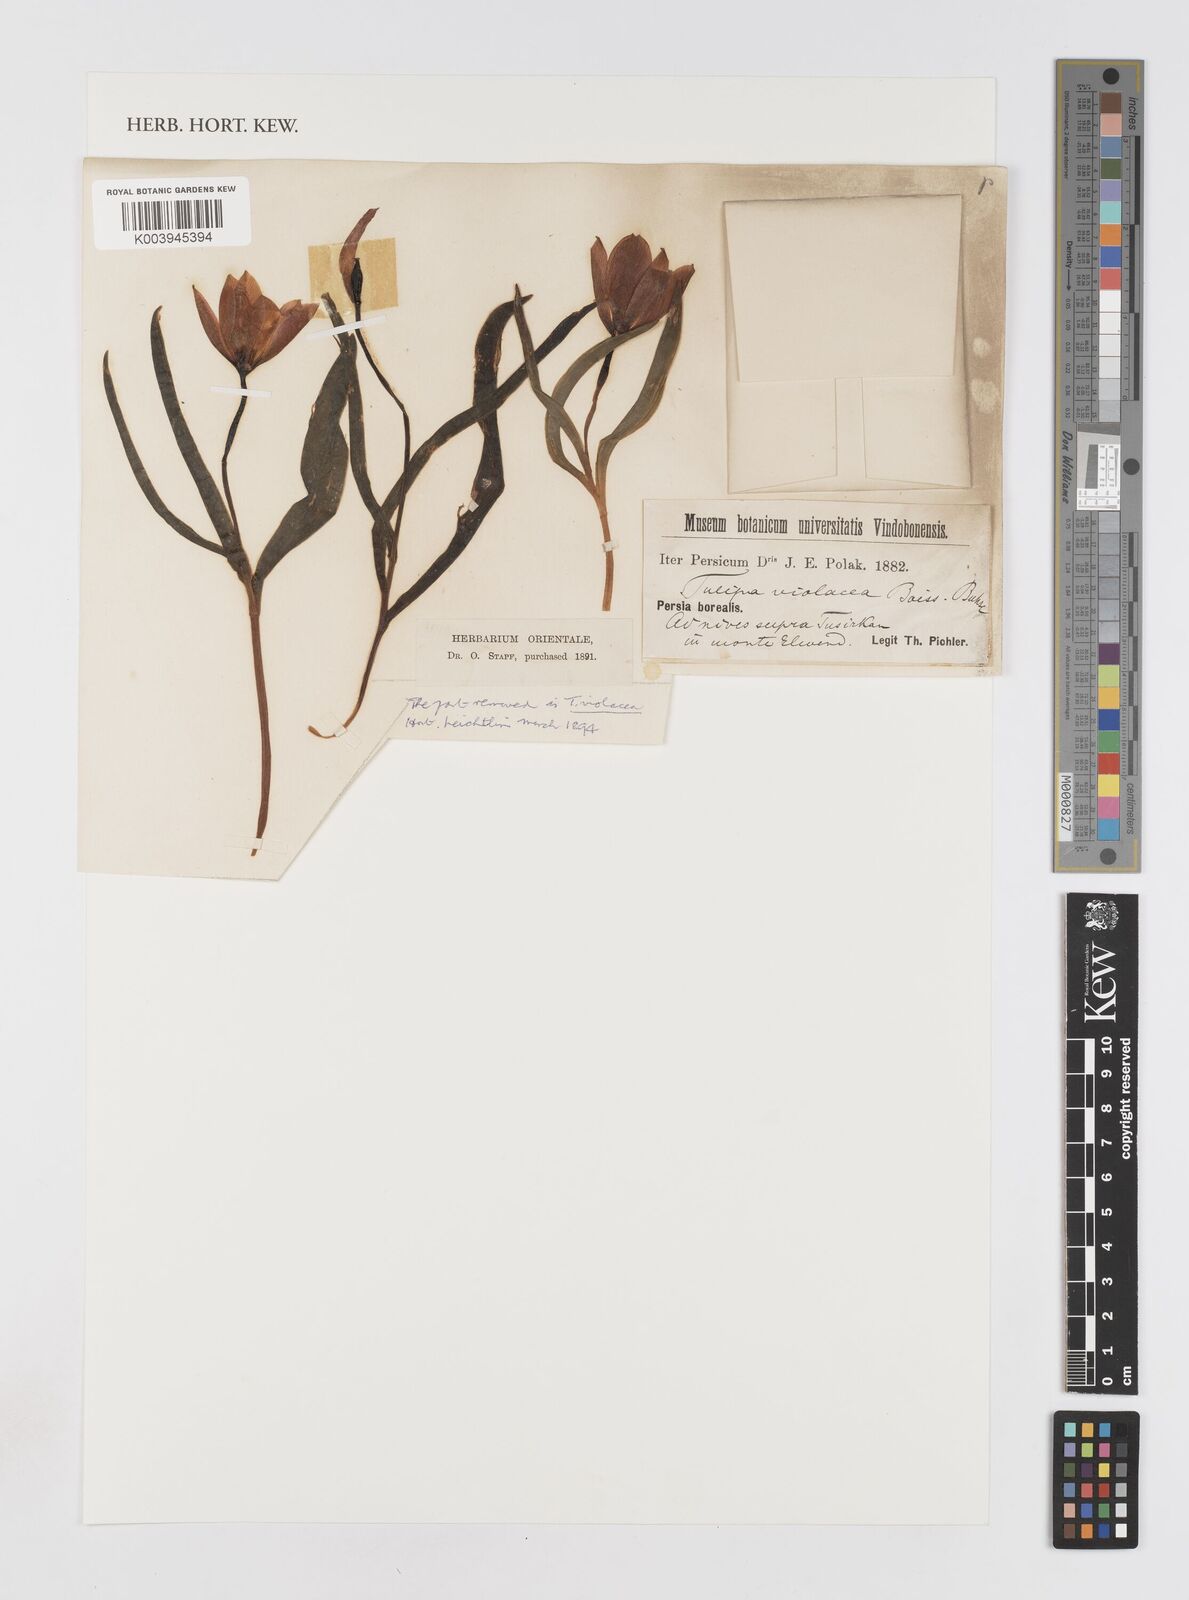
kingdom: Plantae
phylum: Tracheophyta
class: Liliopsida
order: Liliales
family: Liliaceae
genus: Tulipa
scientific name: Tulipa humilis
